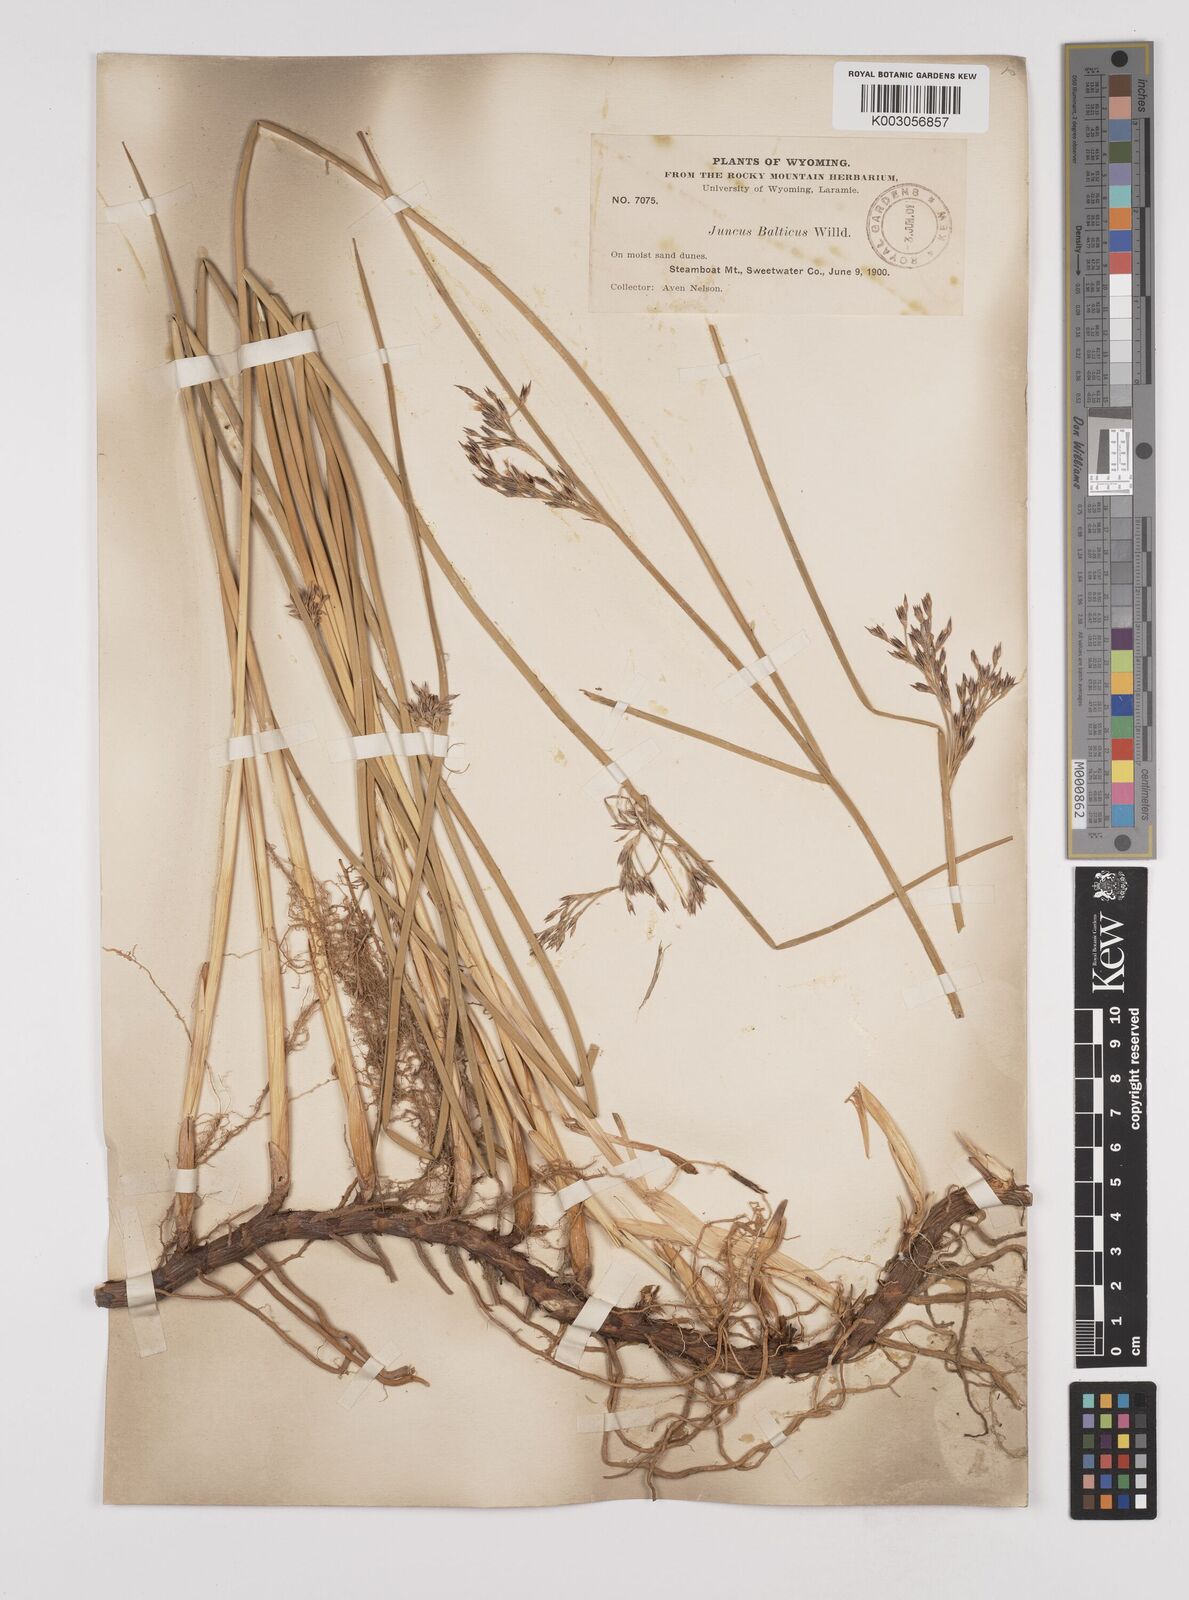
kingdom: Plantae
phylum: Tracheophyta
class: Liliopsida
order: Poales
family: Juncaceae
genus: Juncus
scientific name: Juncus balticus
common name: Baltic rush
